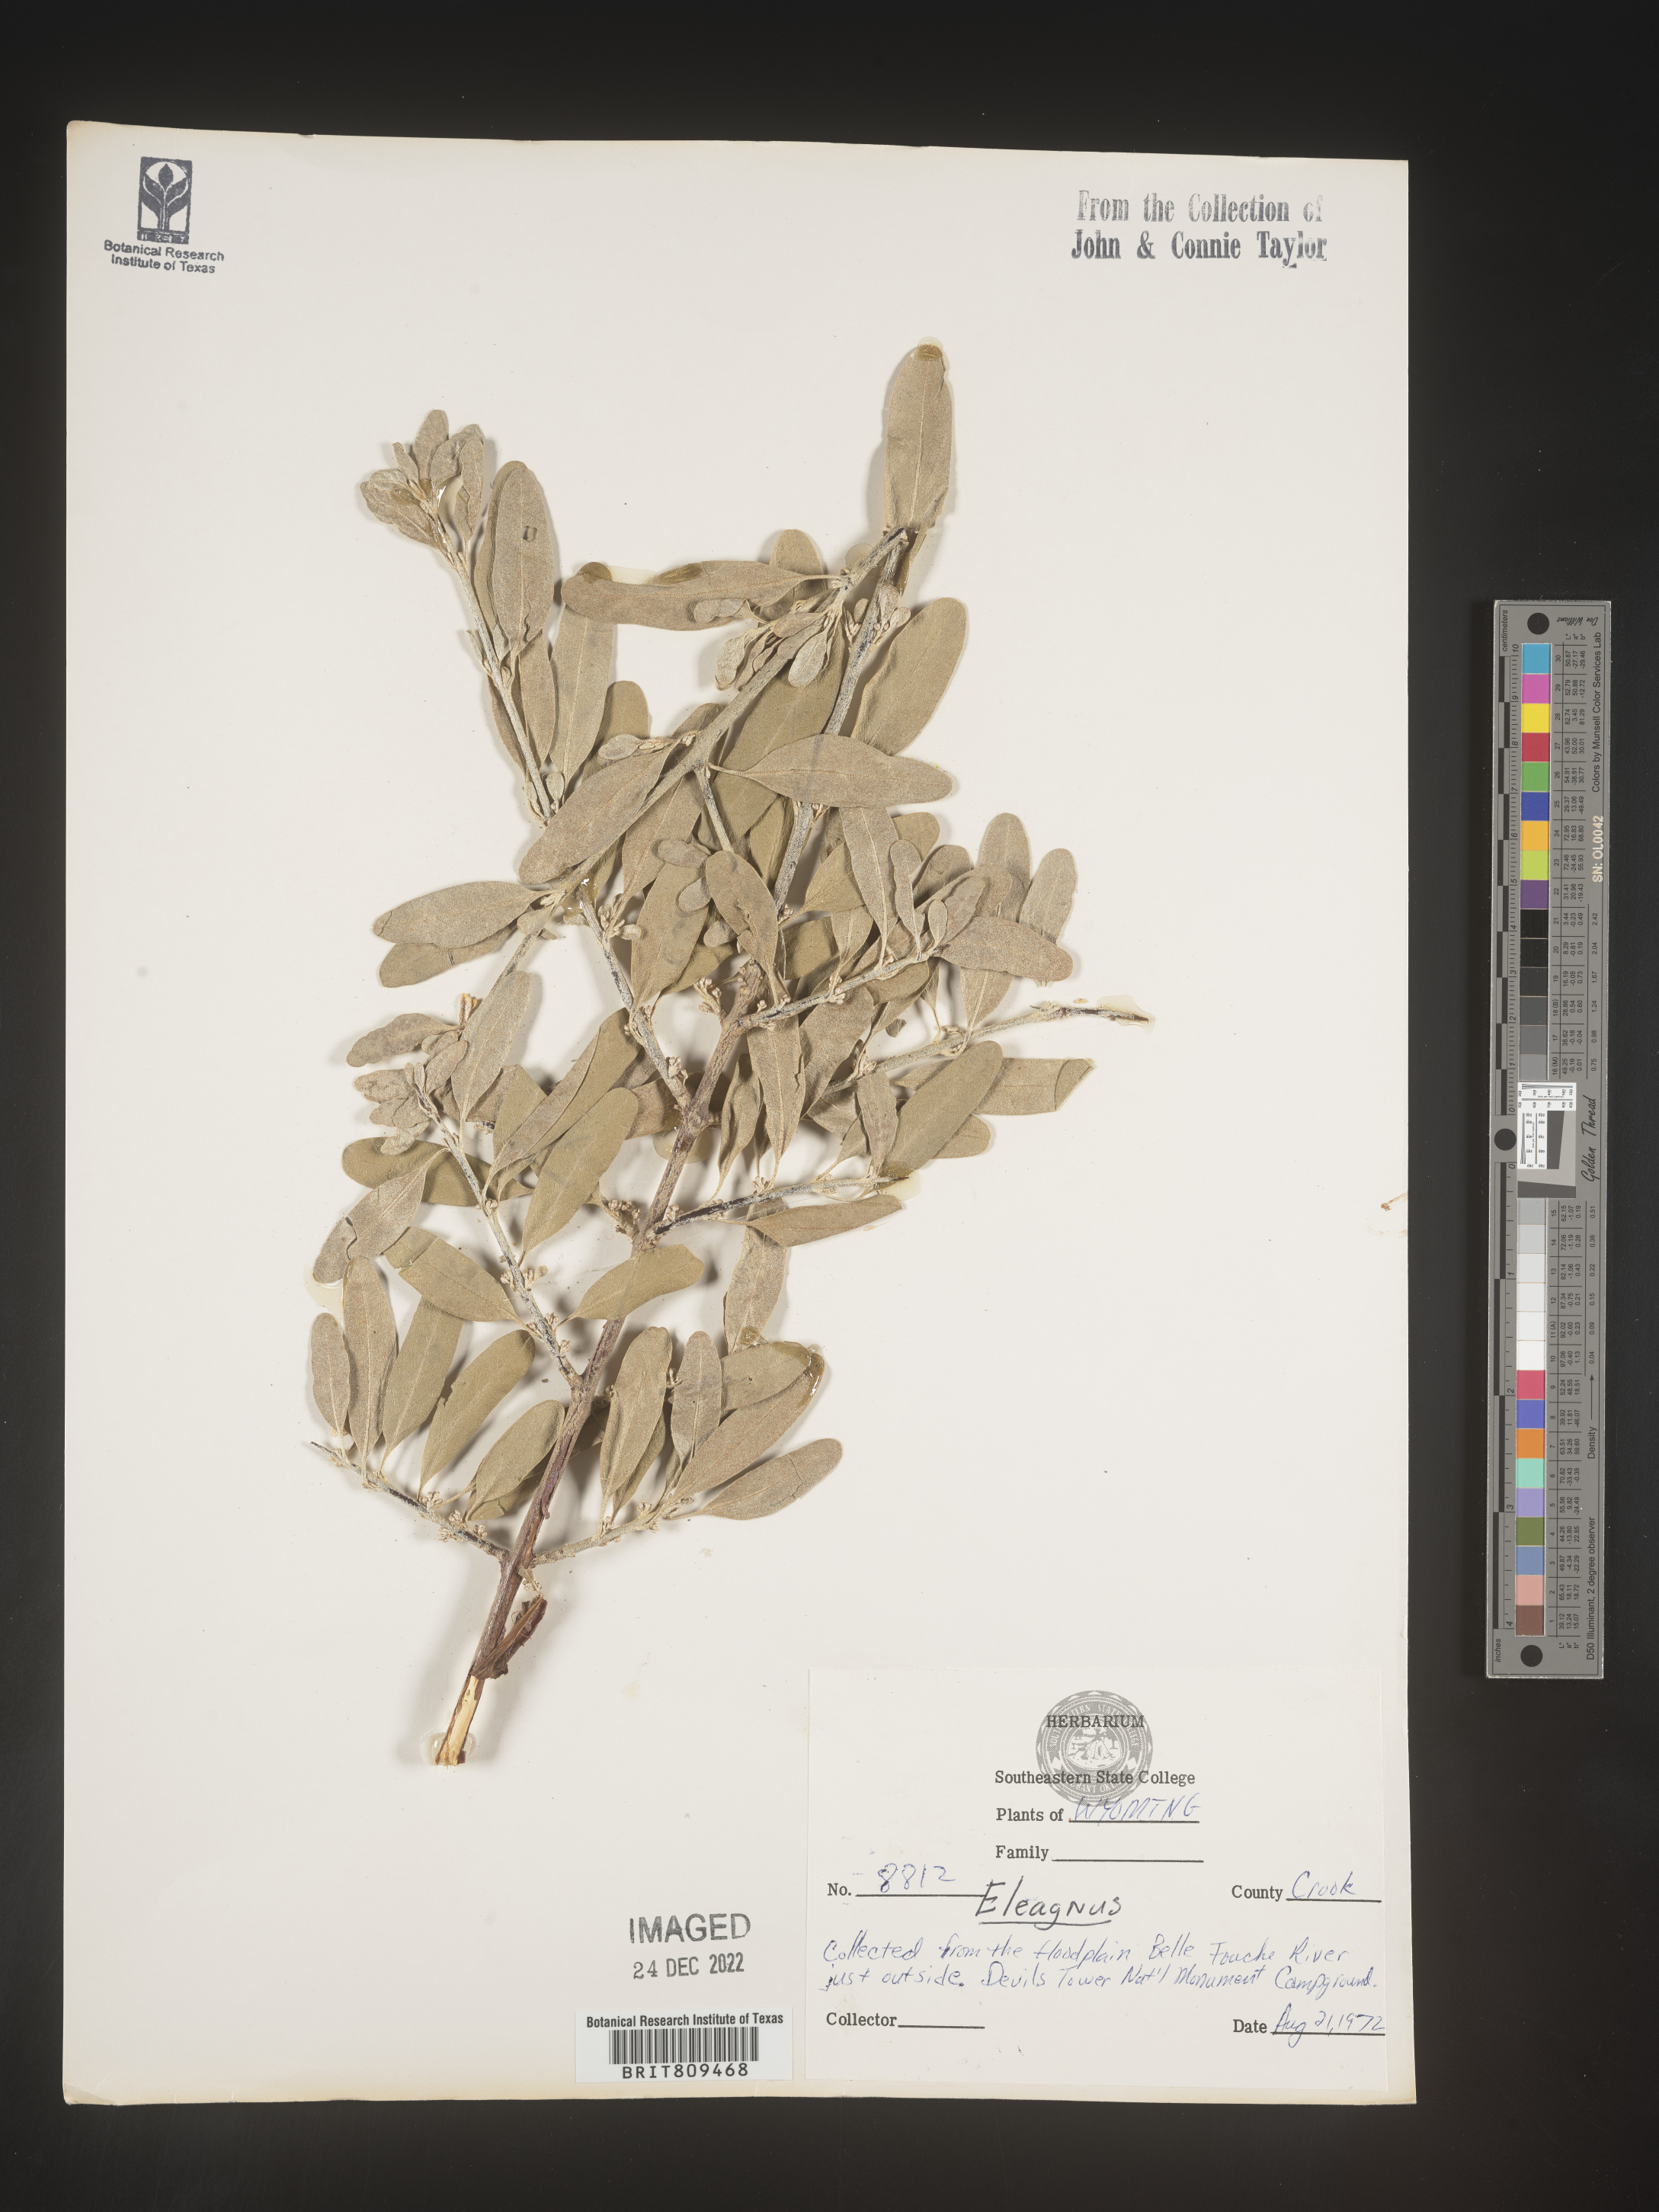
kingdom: Plantae
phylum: Tracheophyta
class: Magnoliopsida
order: Rosales
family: Elaeagnaceae
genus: Elaeagnus
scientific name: Elaeagnus
